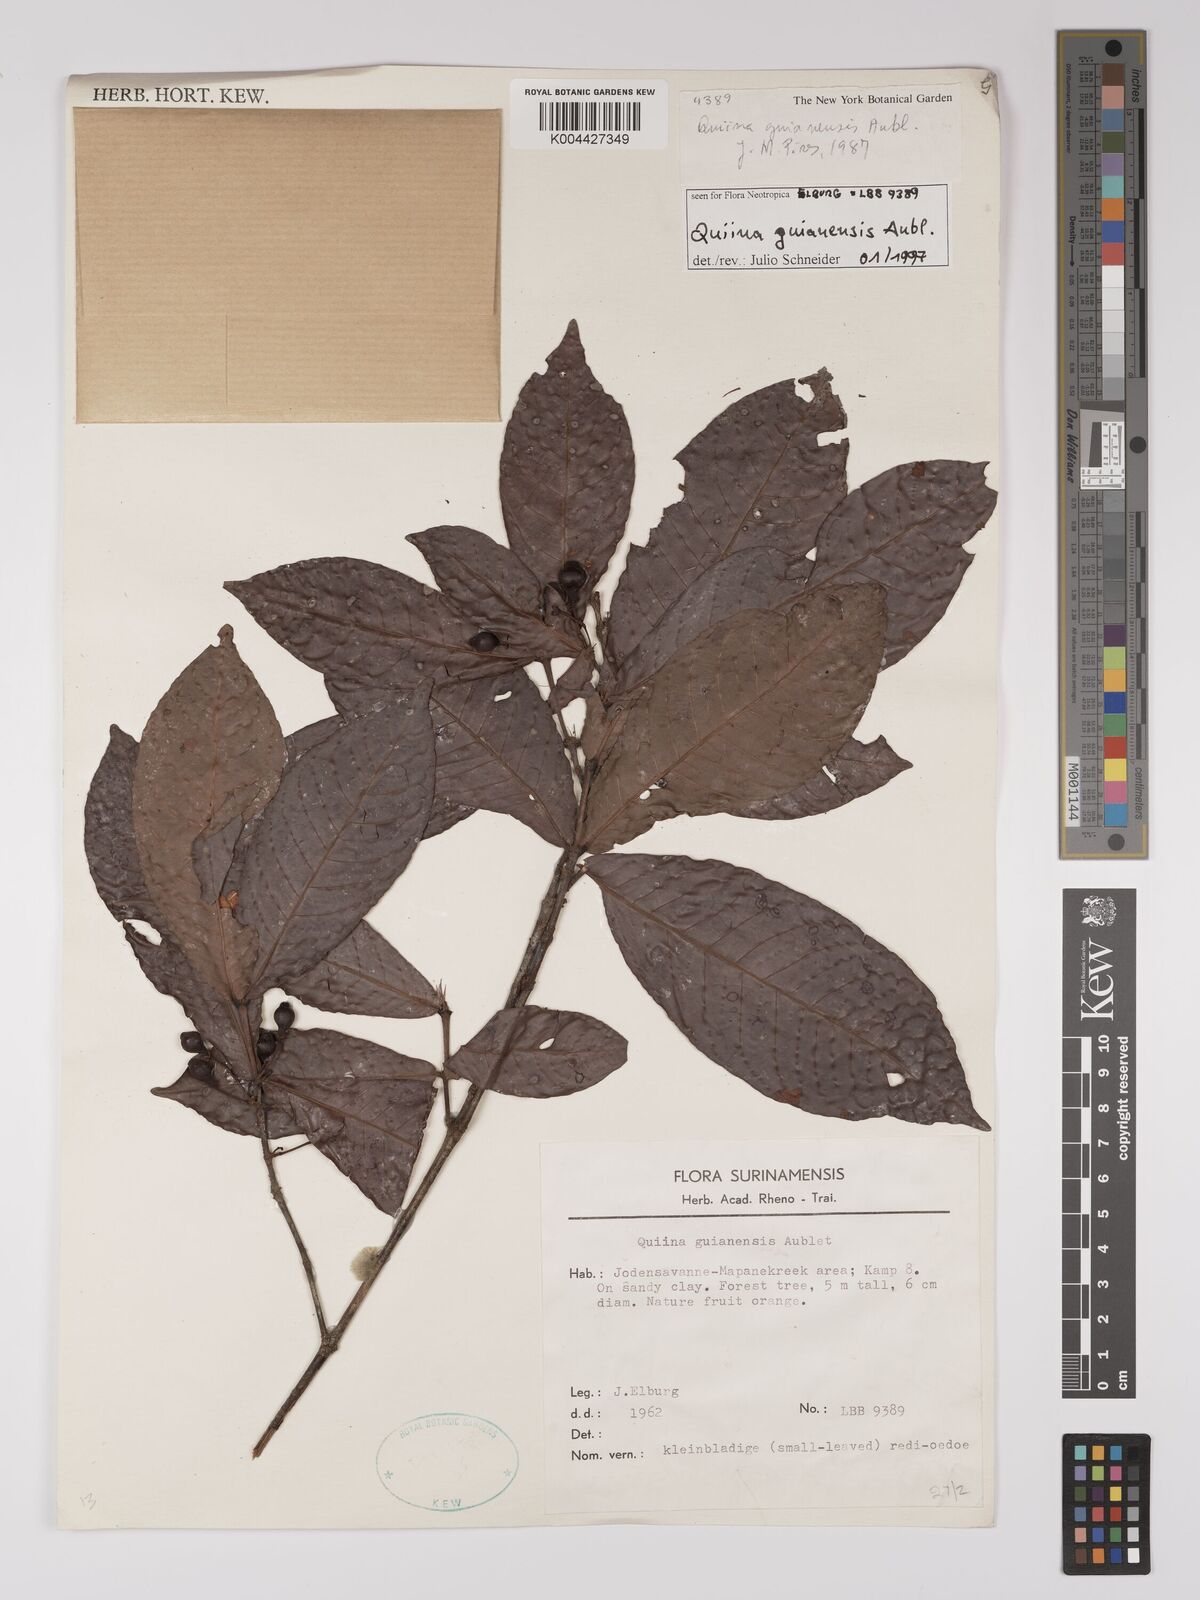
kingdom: Plantae
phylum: Tracheophyta
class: Magnoliopsida
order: Malpighiales
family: Quiinaceae
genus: Quiina
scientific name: Quiina guianensis
